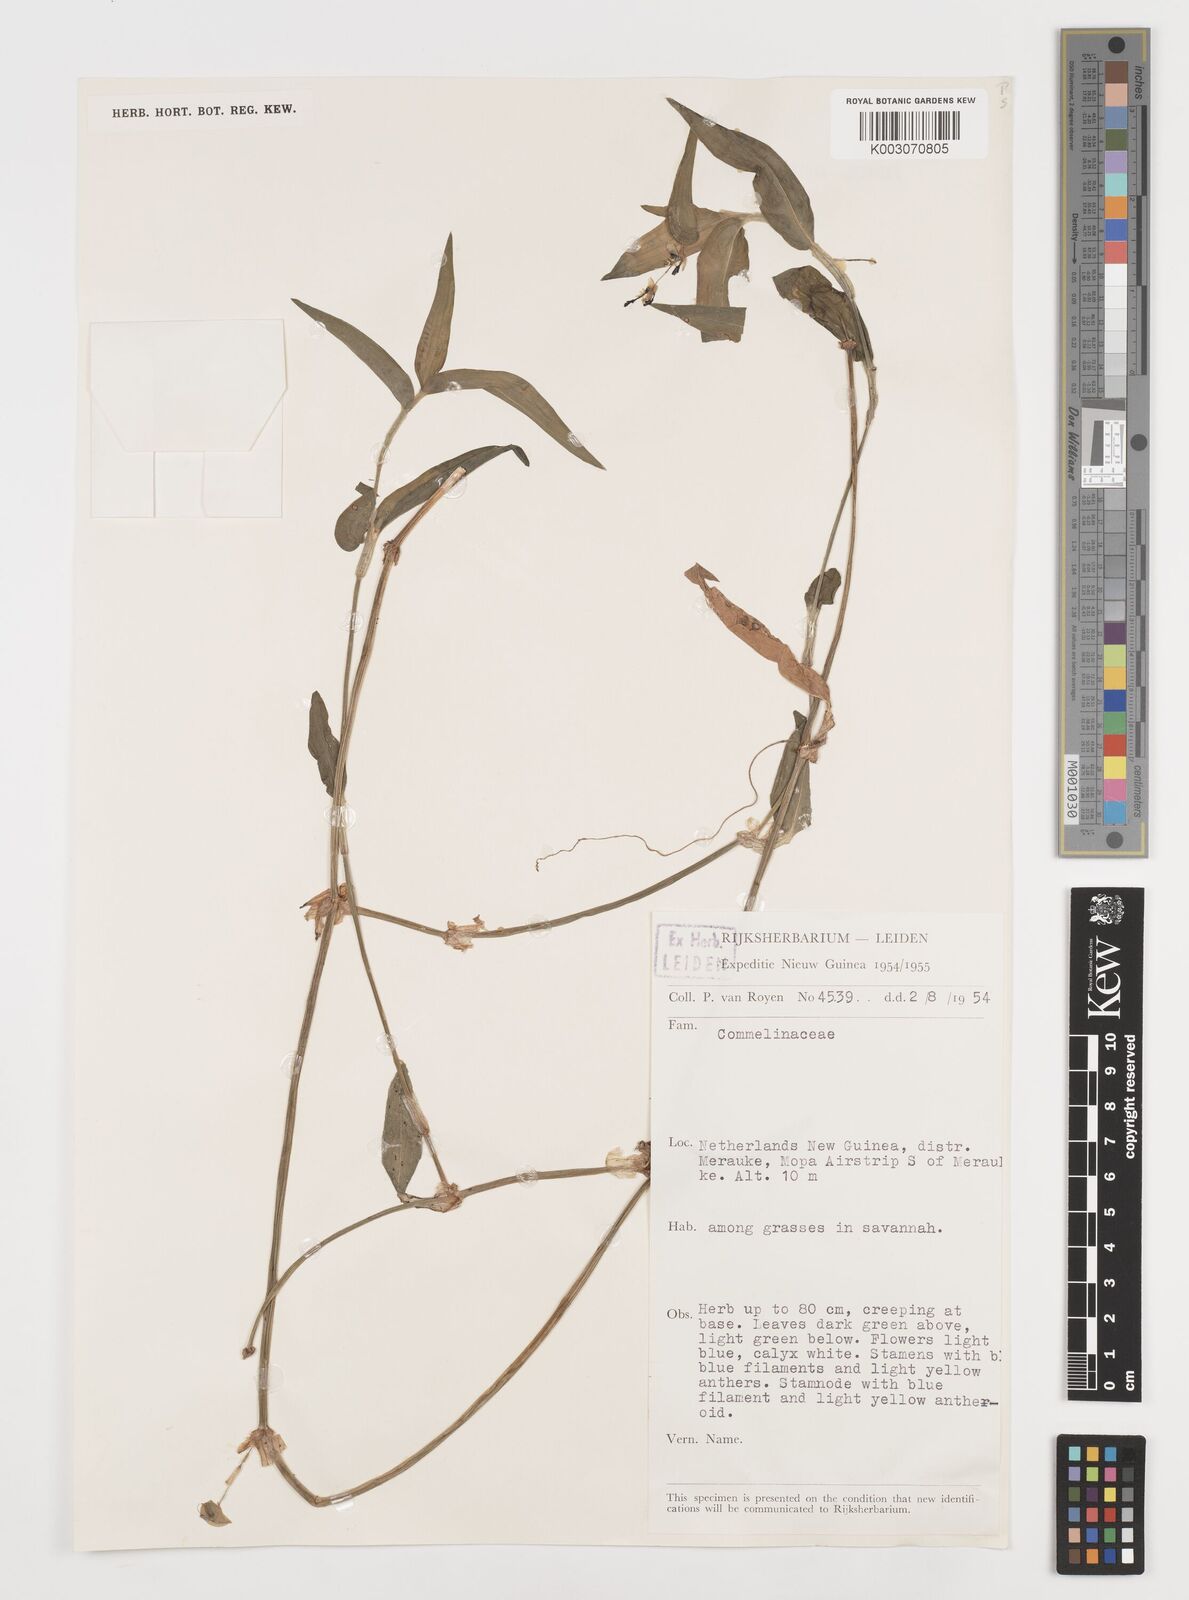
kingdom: Plantae
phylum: Tracheophyta
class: Liliopsida
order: Commelinales
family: Commelinaceae
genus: Commelina
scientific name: Commelina
